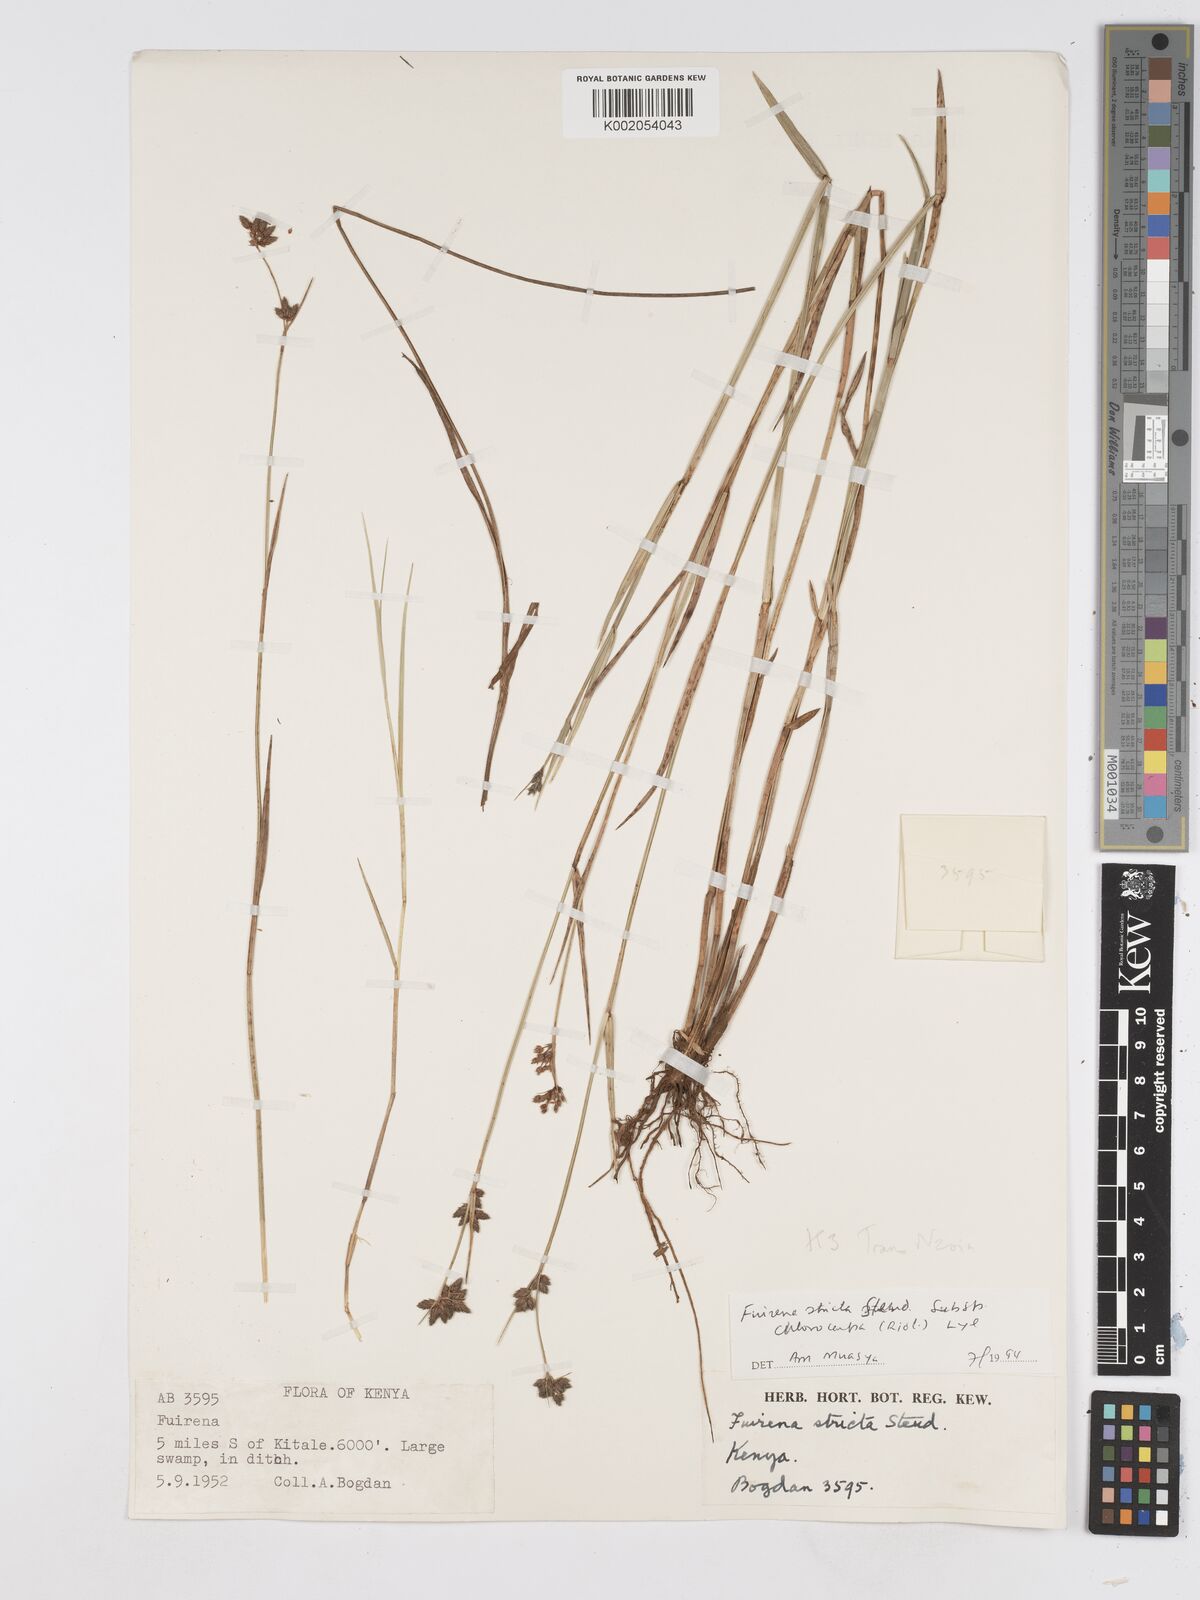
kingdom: Plantae
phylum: Tracheophyta
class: Liliopsida
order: Poales
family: Cyperaceae
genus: Fuirena
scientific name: Fuirena stricta
